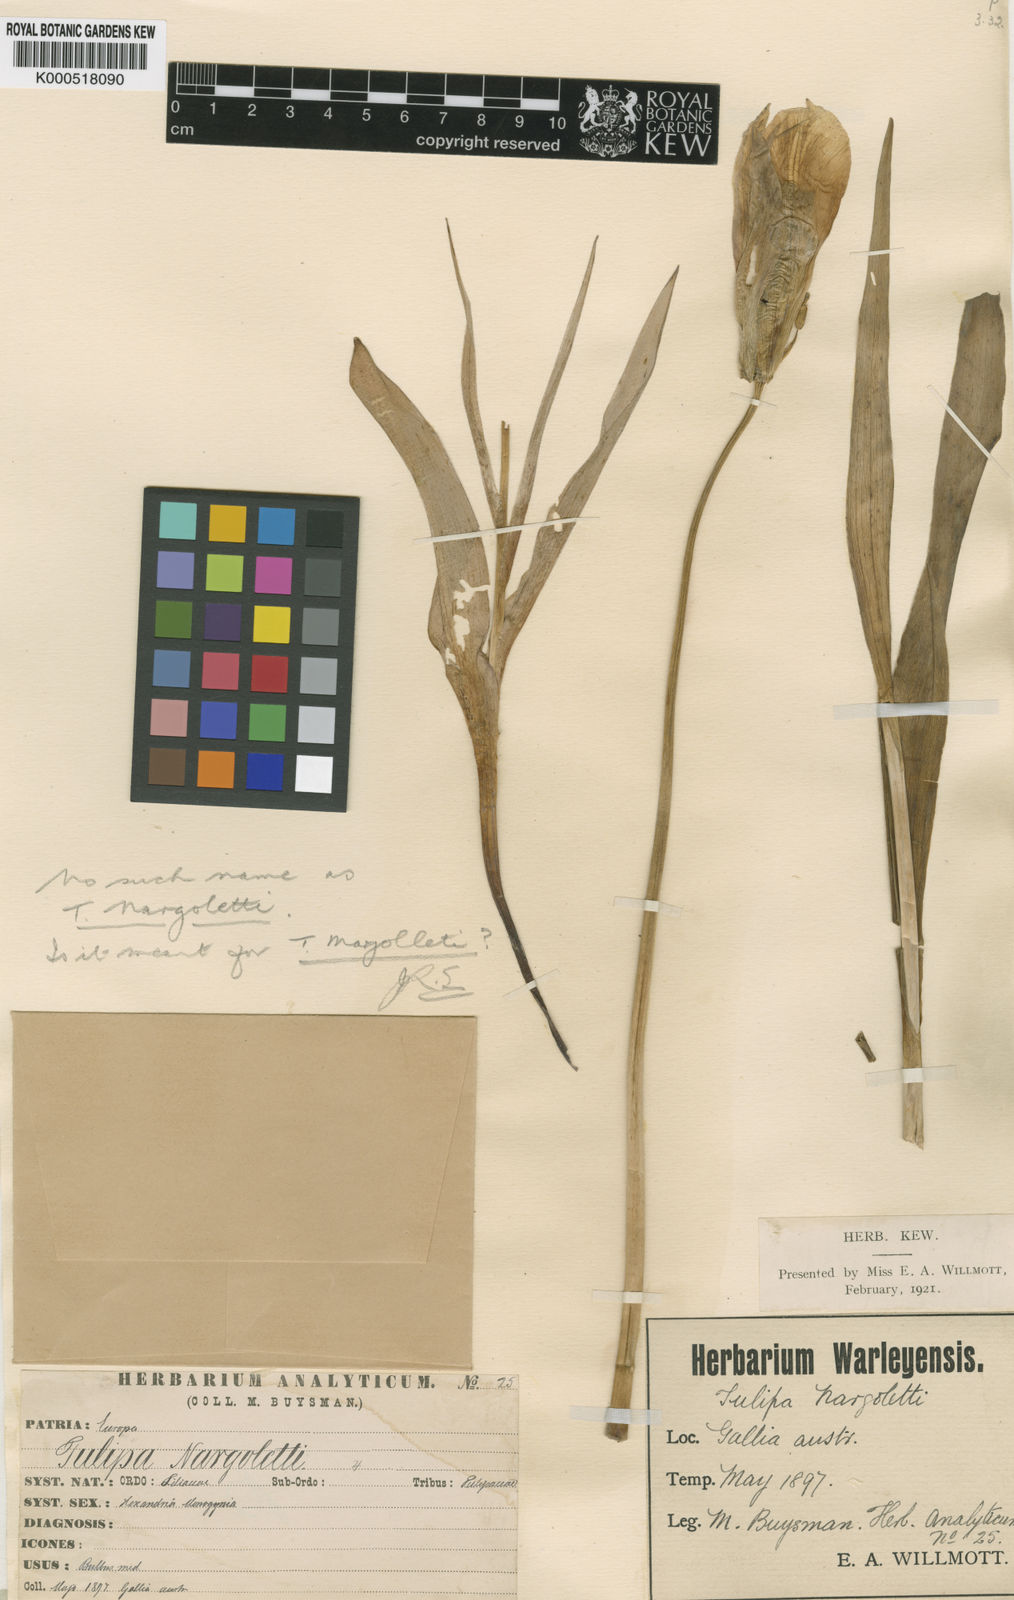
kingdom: Plantae
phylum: Tracheophyta
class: Liliopsida
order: Liliales
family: Liliaceae
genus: Tulipa
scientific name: Tulipa
